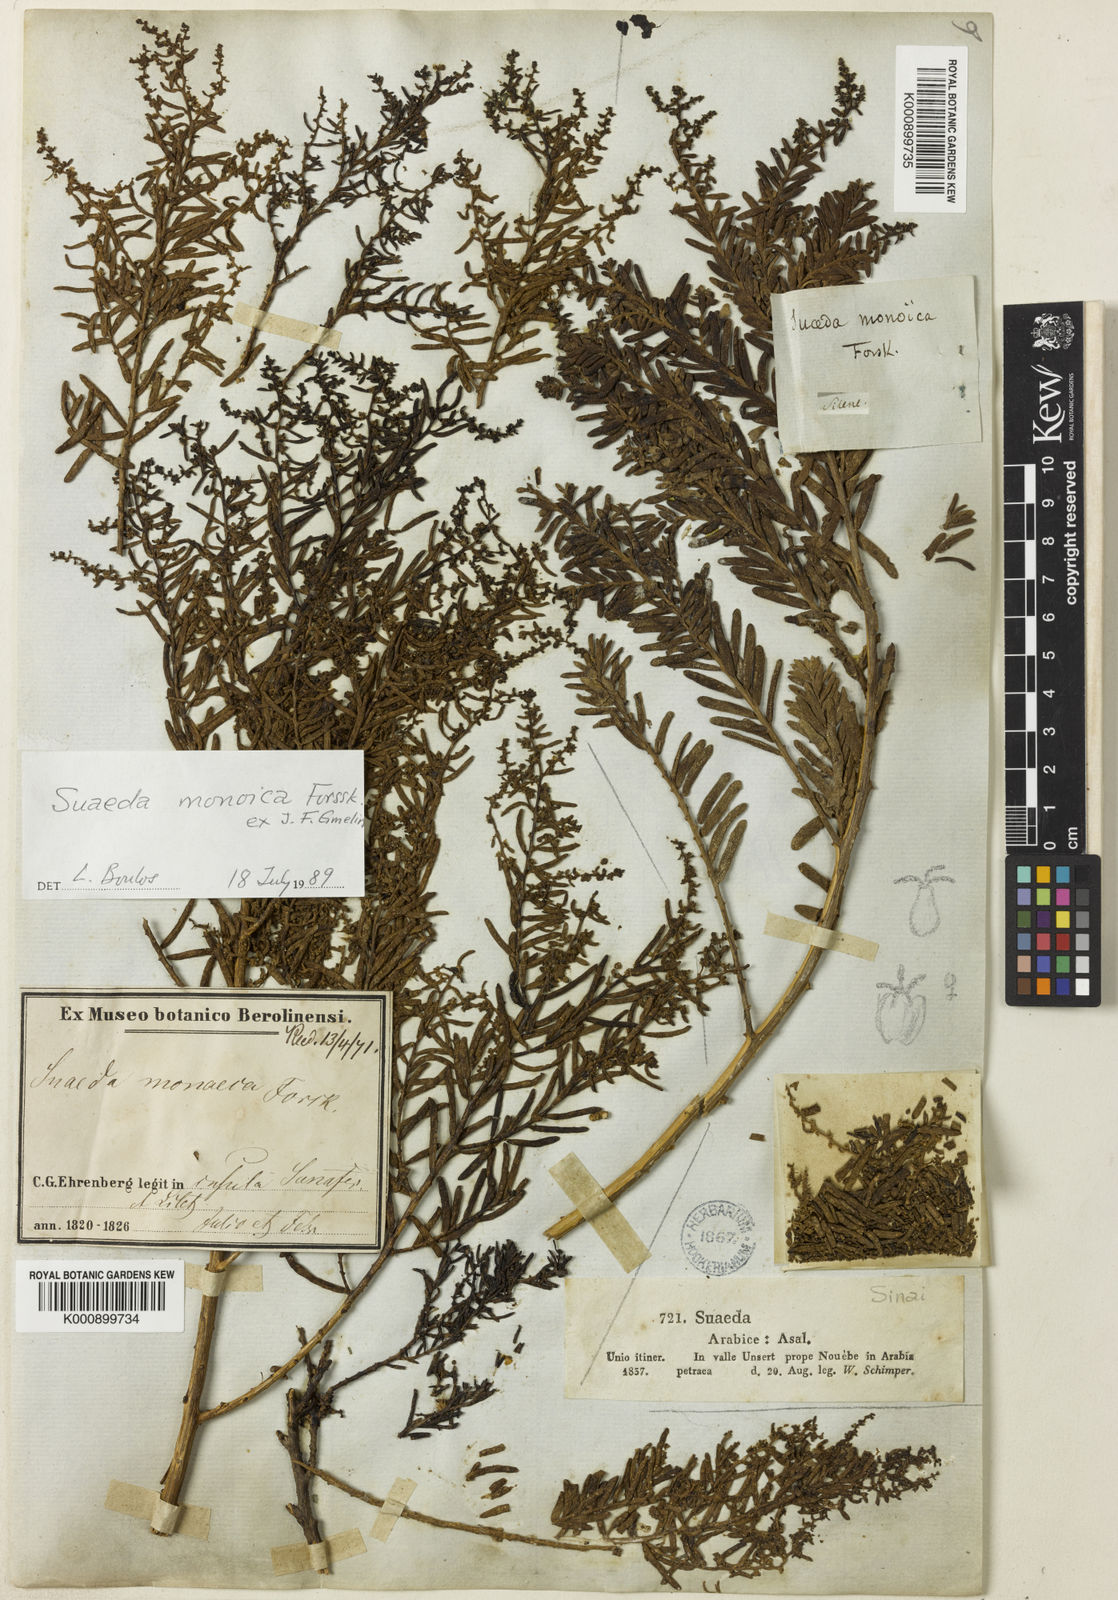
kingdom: Plantae
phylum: Tracheophyta
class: Magnoliopsida
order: Caryophyllales
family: Amaranthaceae
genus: Suaeda
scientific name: Suaeda monoica
